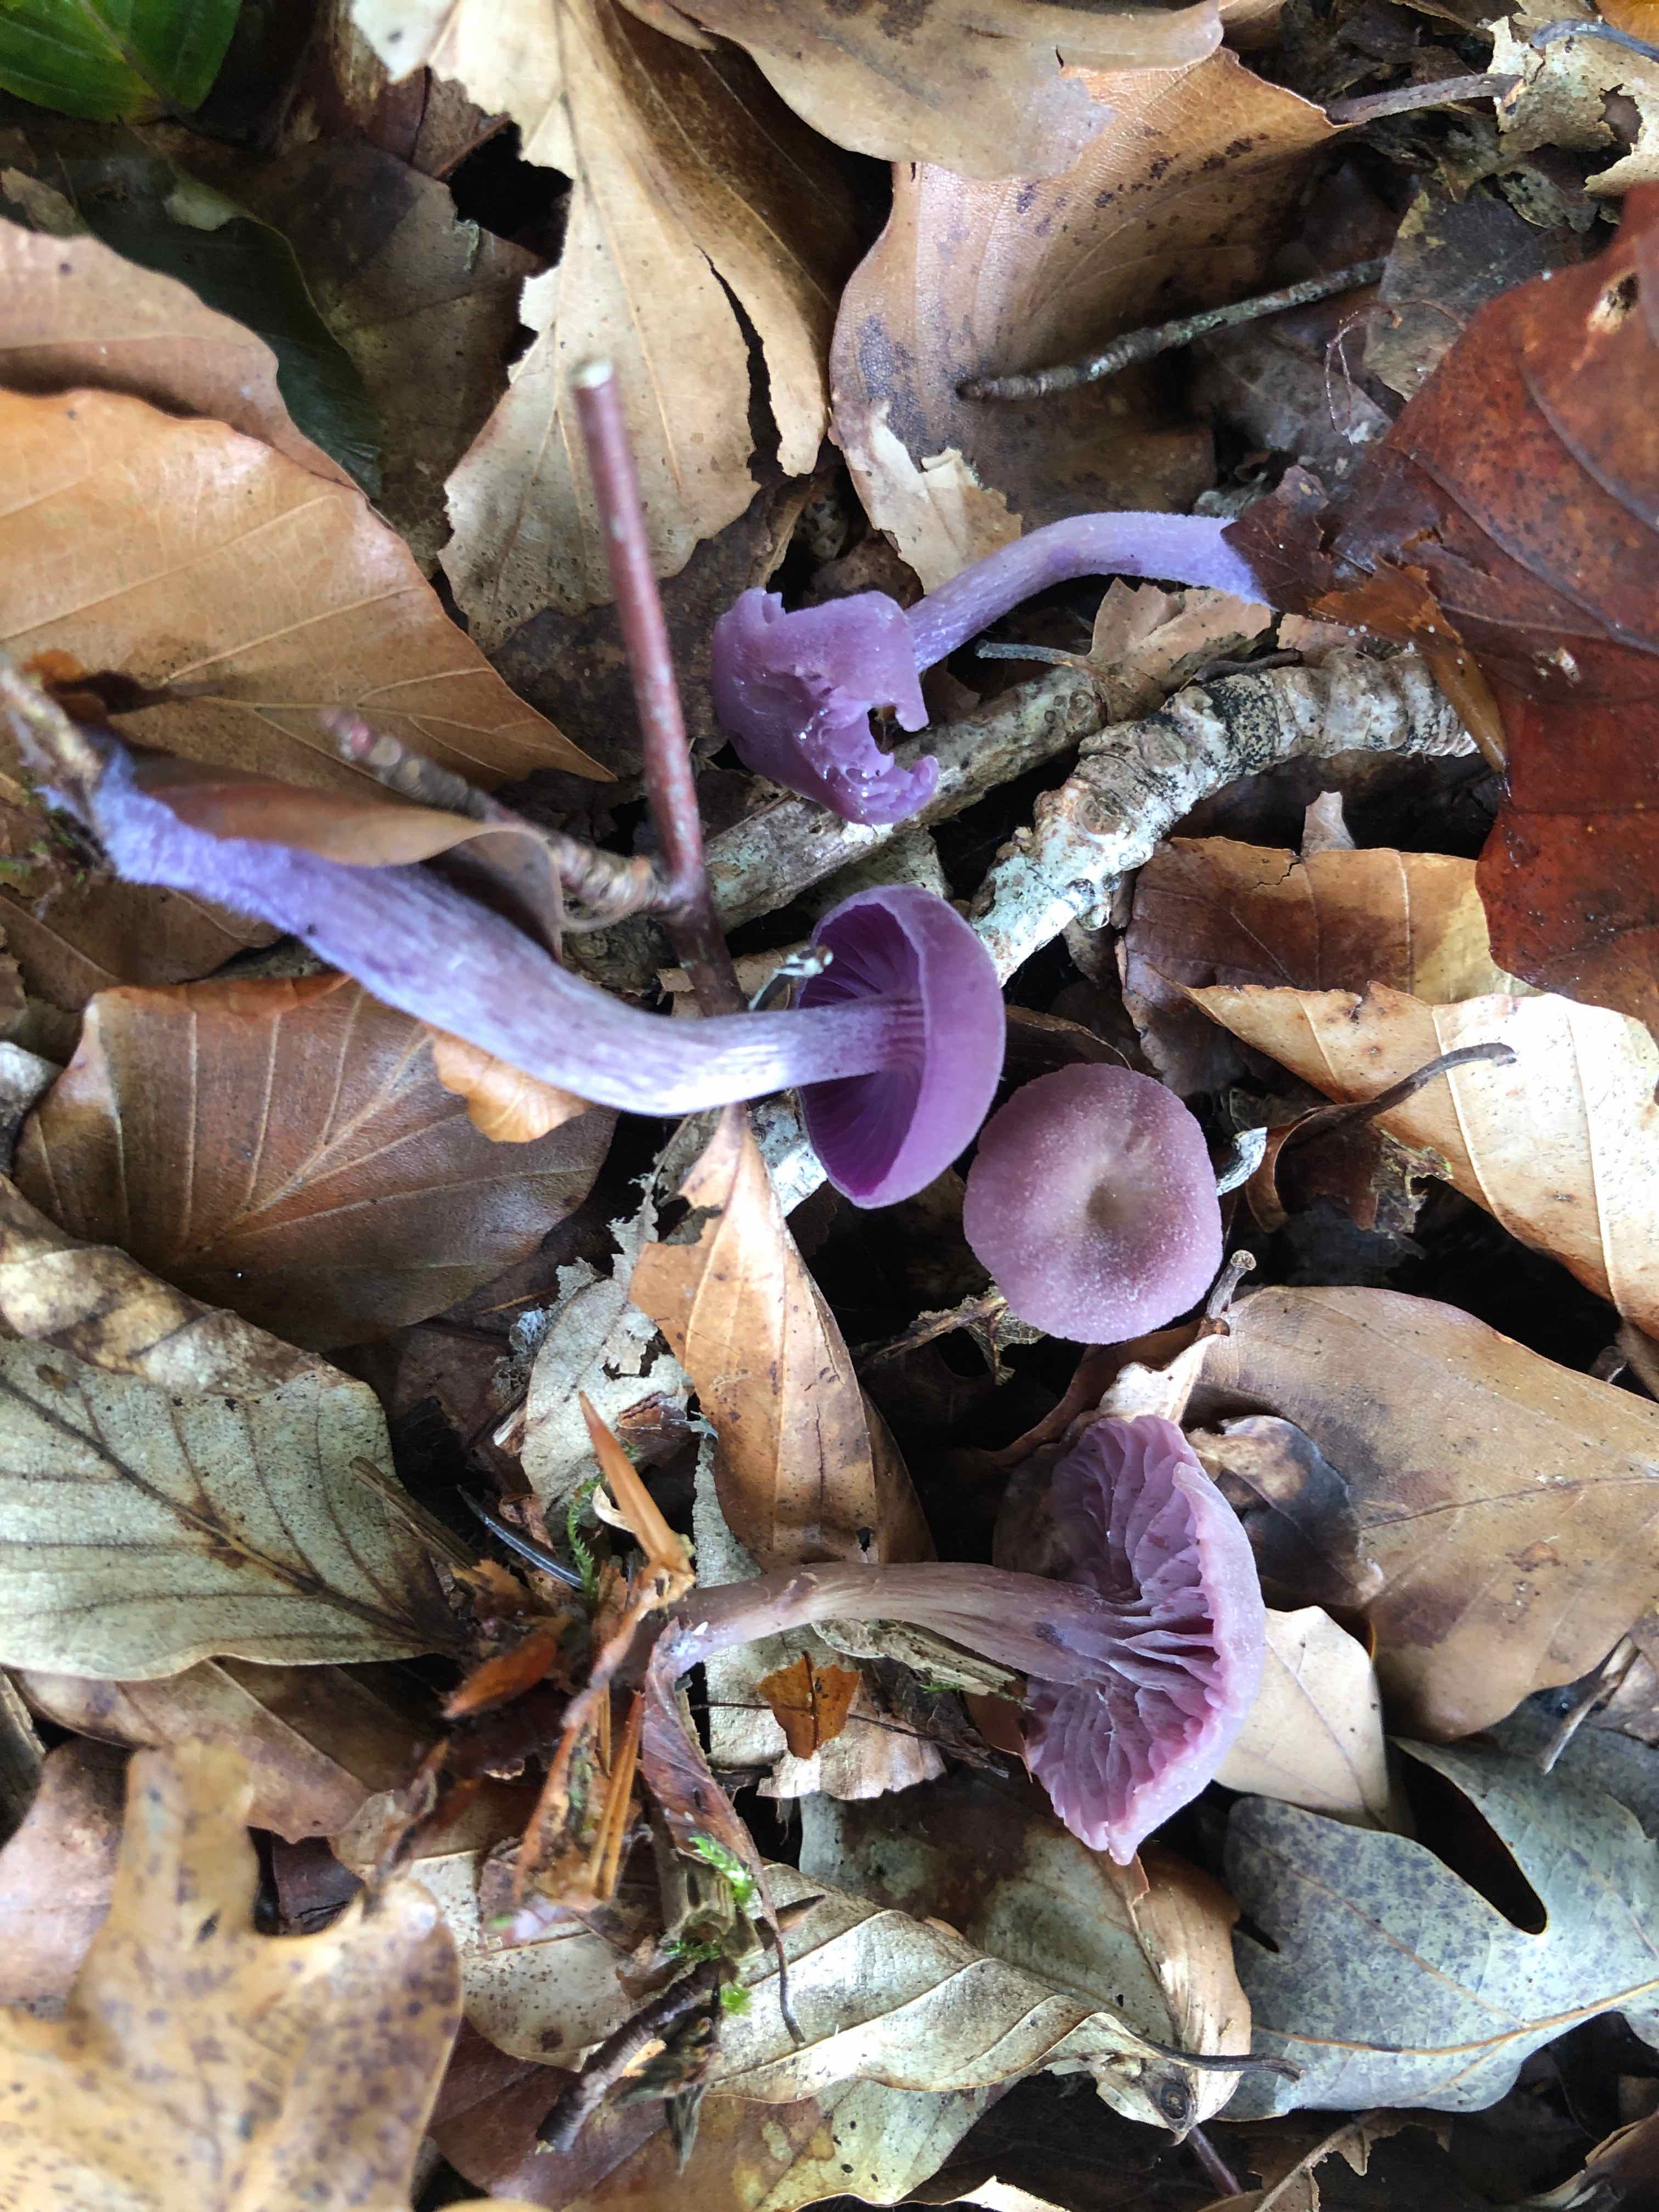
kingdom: Fungi
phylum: Basidiomycota
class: Agaricomycetes
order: Agaricales
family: Hydnangiaceae
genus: Laccaria
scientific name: Laccaria amethystina
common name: violet ametysthat
